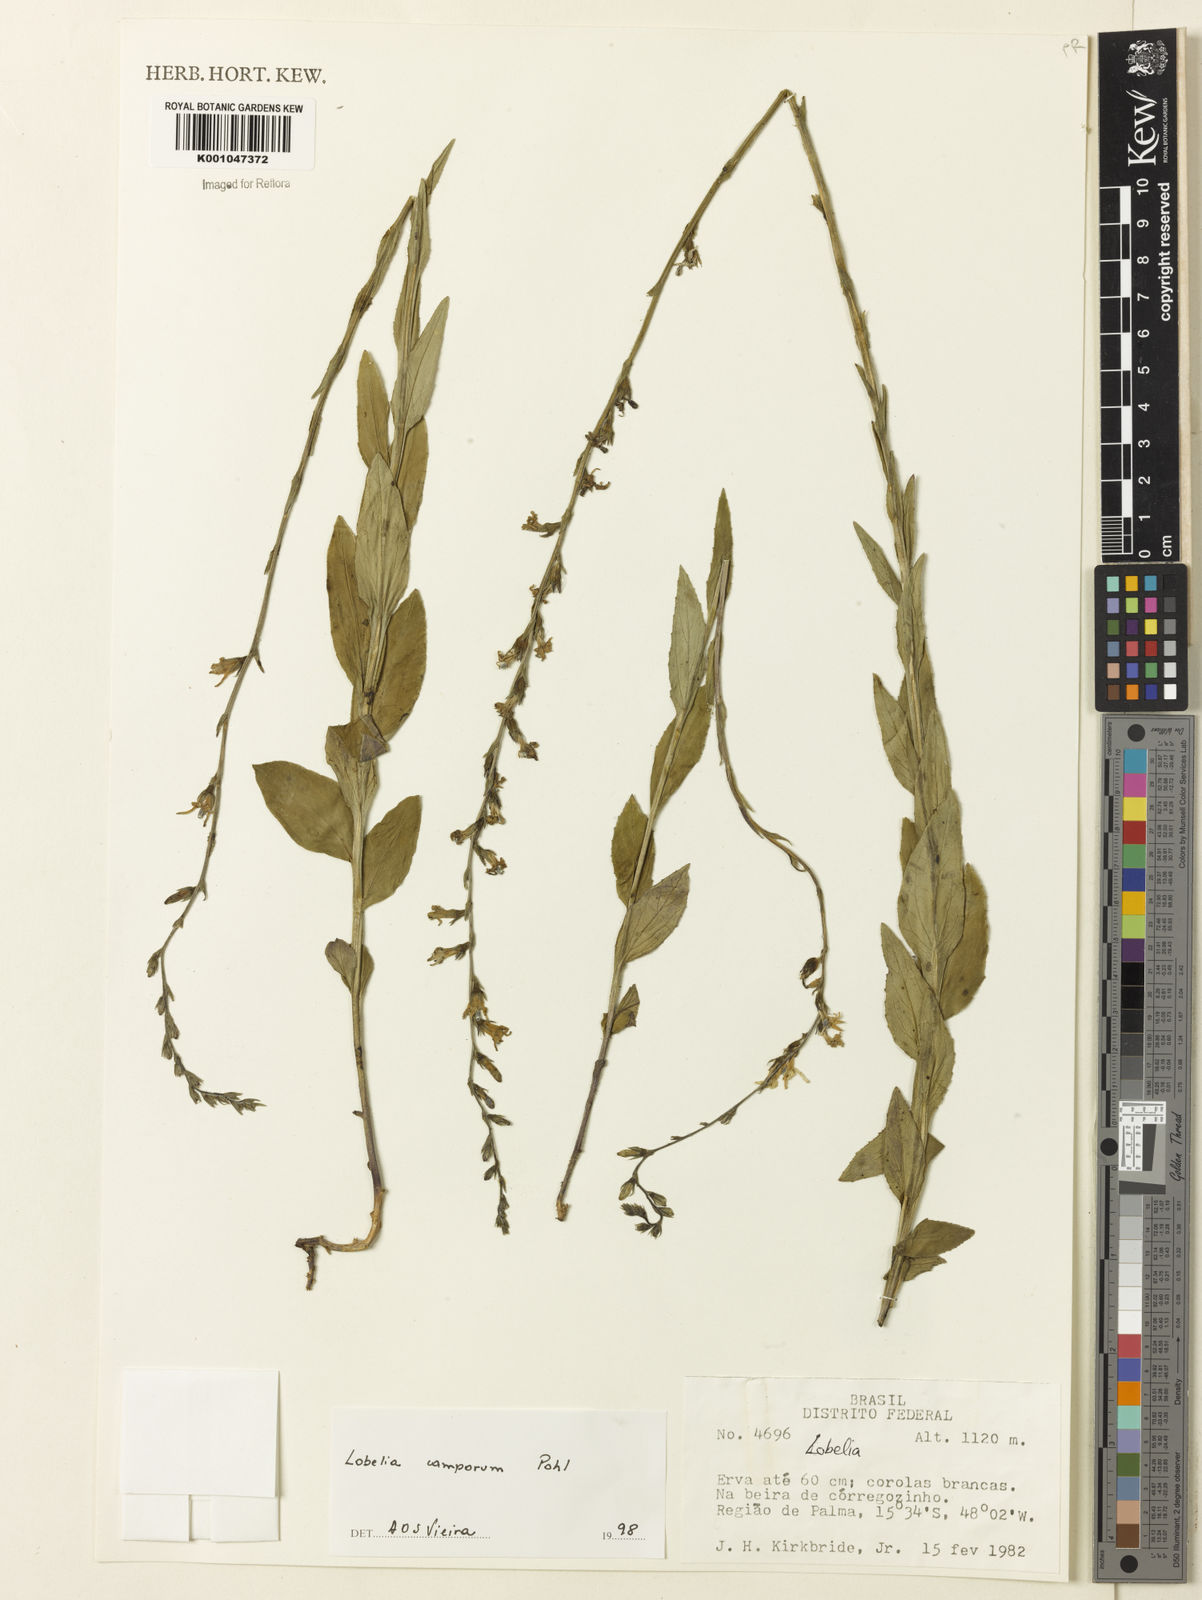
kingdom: Plantae
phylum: Tracheophyta
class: Magnoliopsida
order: Asterales
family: Campanulaceae
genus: Lobelia
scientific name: Lobelia camporum
